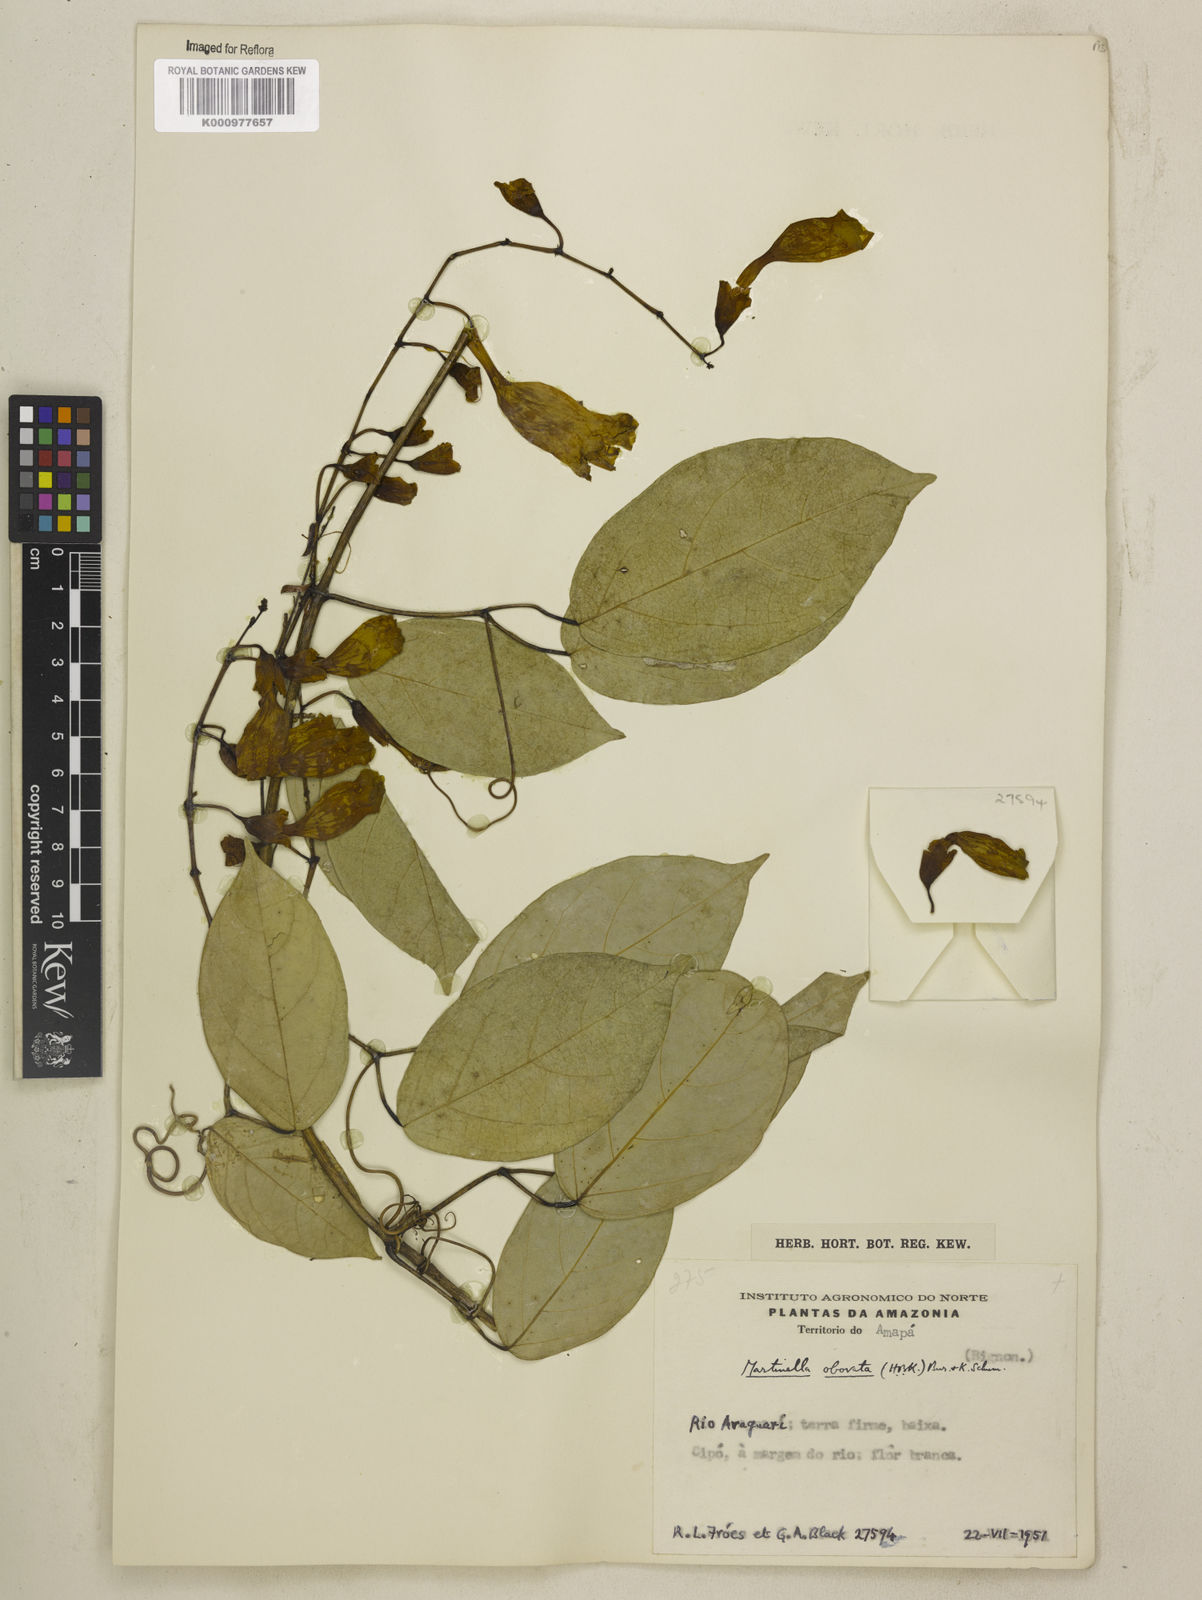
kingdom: Animalia
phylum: Arthropoda
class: Insecta
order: Coleoptera
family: Chrysomelidae
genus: Martinella
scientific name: Martinella obovata
